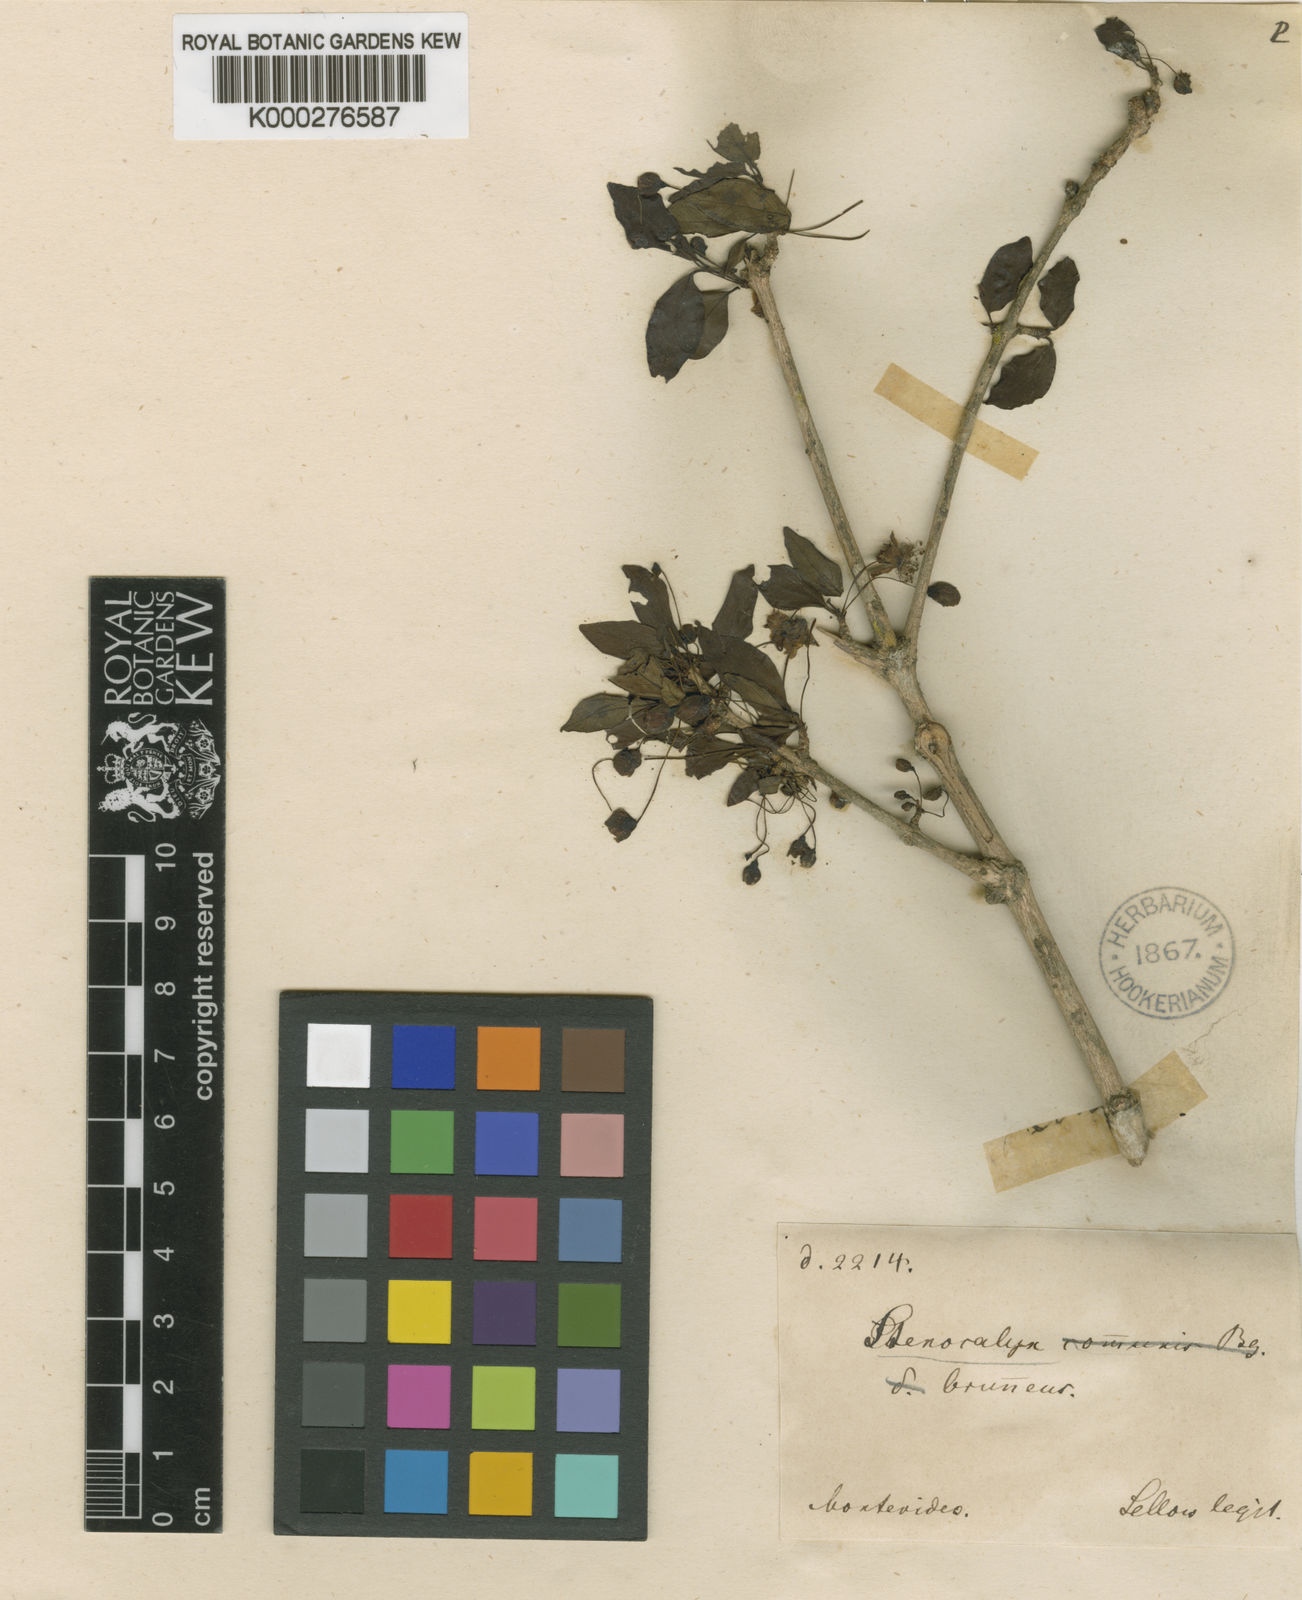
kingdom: Plantae
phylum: Tracheophyta
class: Magnoliopsida
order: Myrtales
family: Myrtaceae
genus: Eugenia
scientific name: Eugenia uniflora
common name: Surinam cherry
